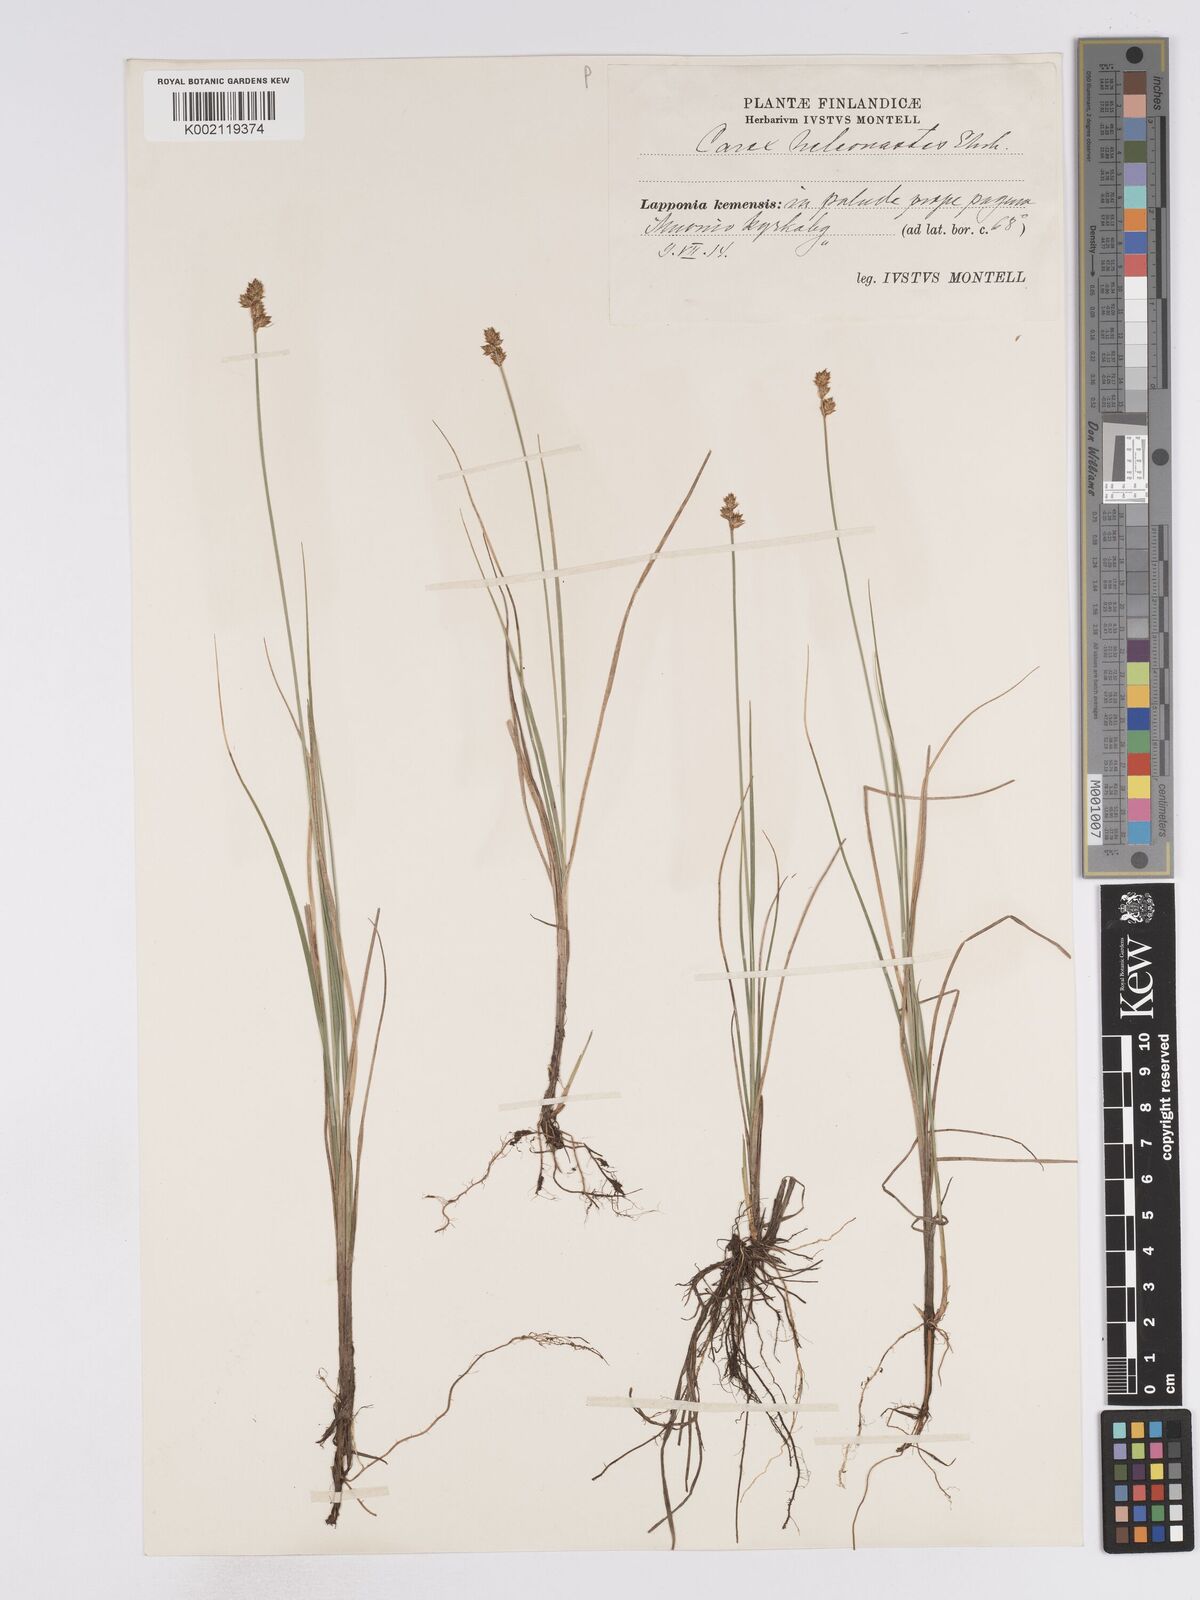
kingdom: Plantae
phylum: Tracheophyta
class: Liliopsida
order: Poales
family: Cyperaceae
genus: Carex
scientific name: Carex heleonastes
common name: Hudson bay sedge
